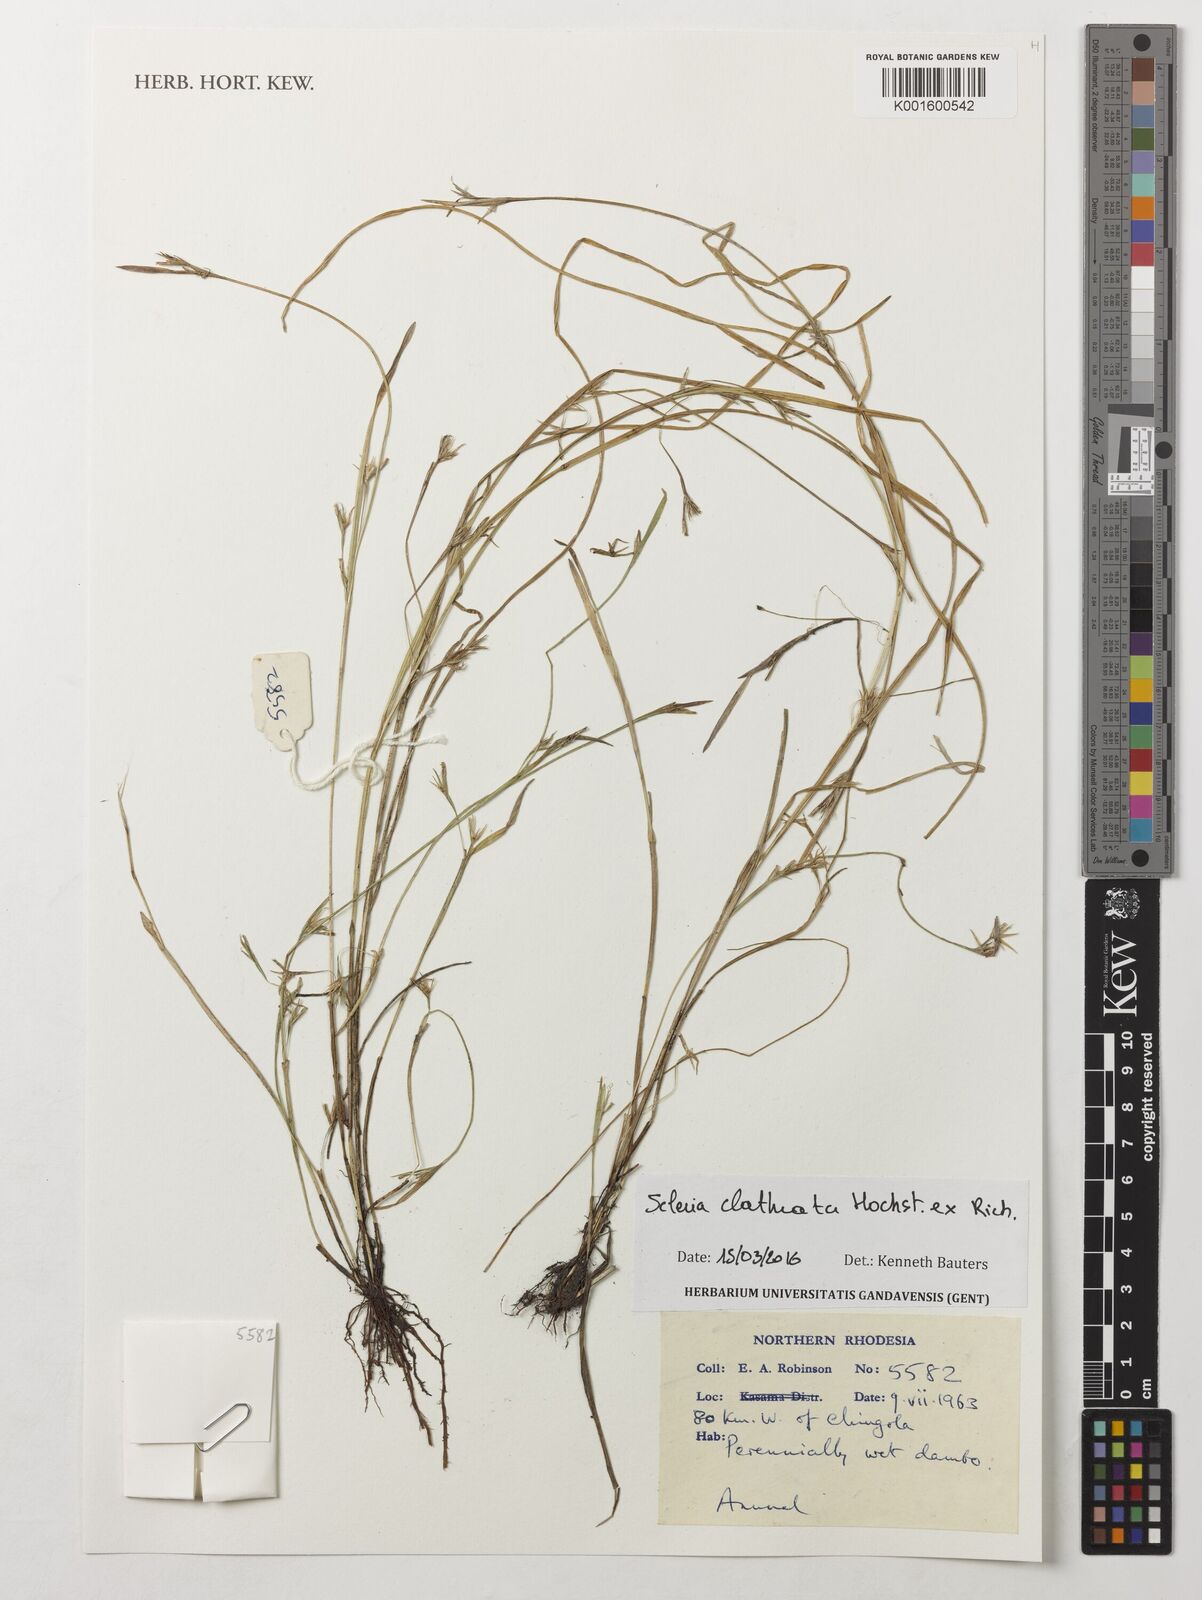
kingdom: Plantae
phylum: Tracheophyta
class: Liliopsida
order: Poales
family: Cyperaceae
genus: Scleria
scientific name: Scleria clathrata
